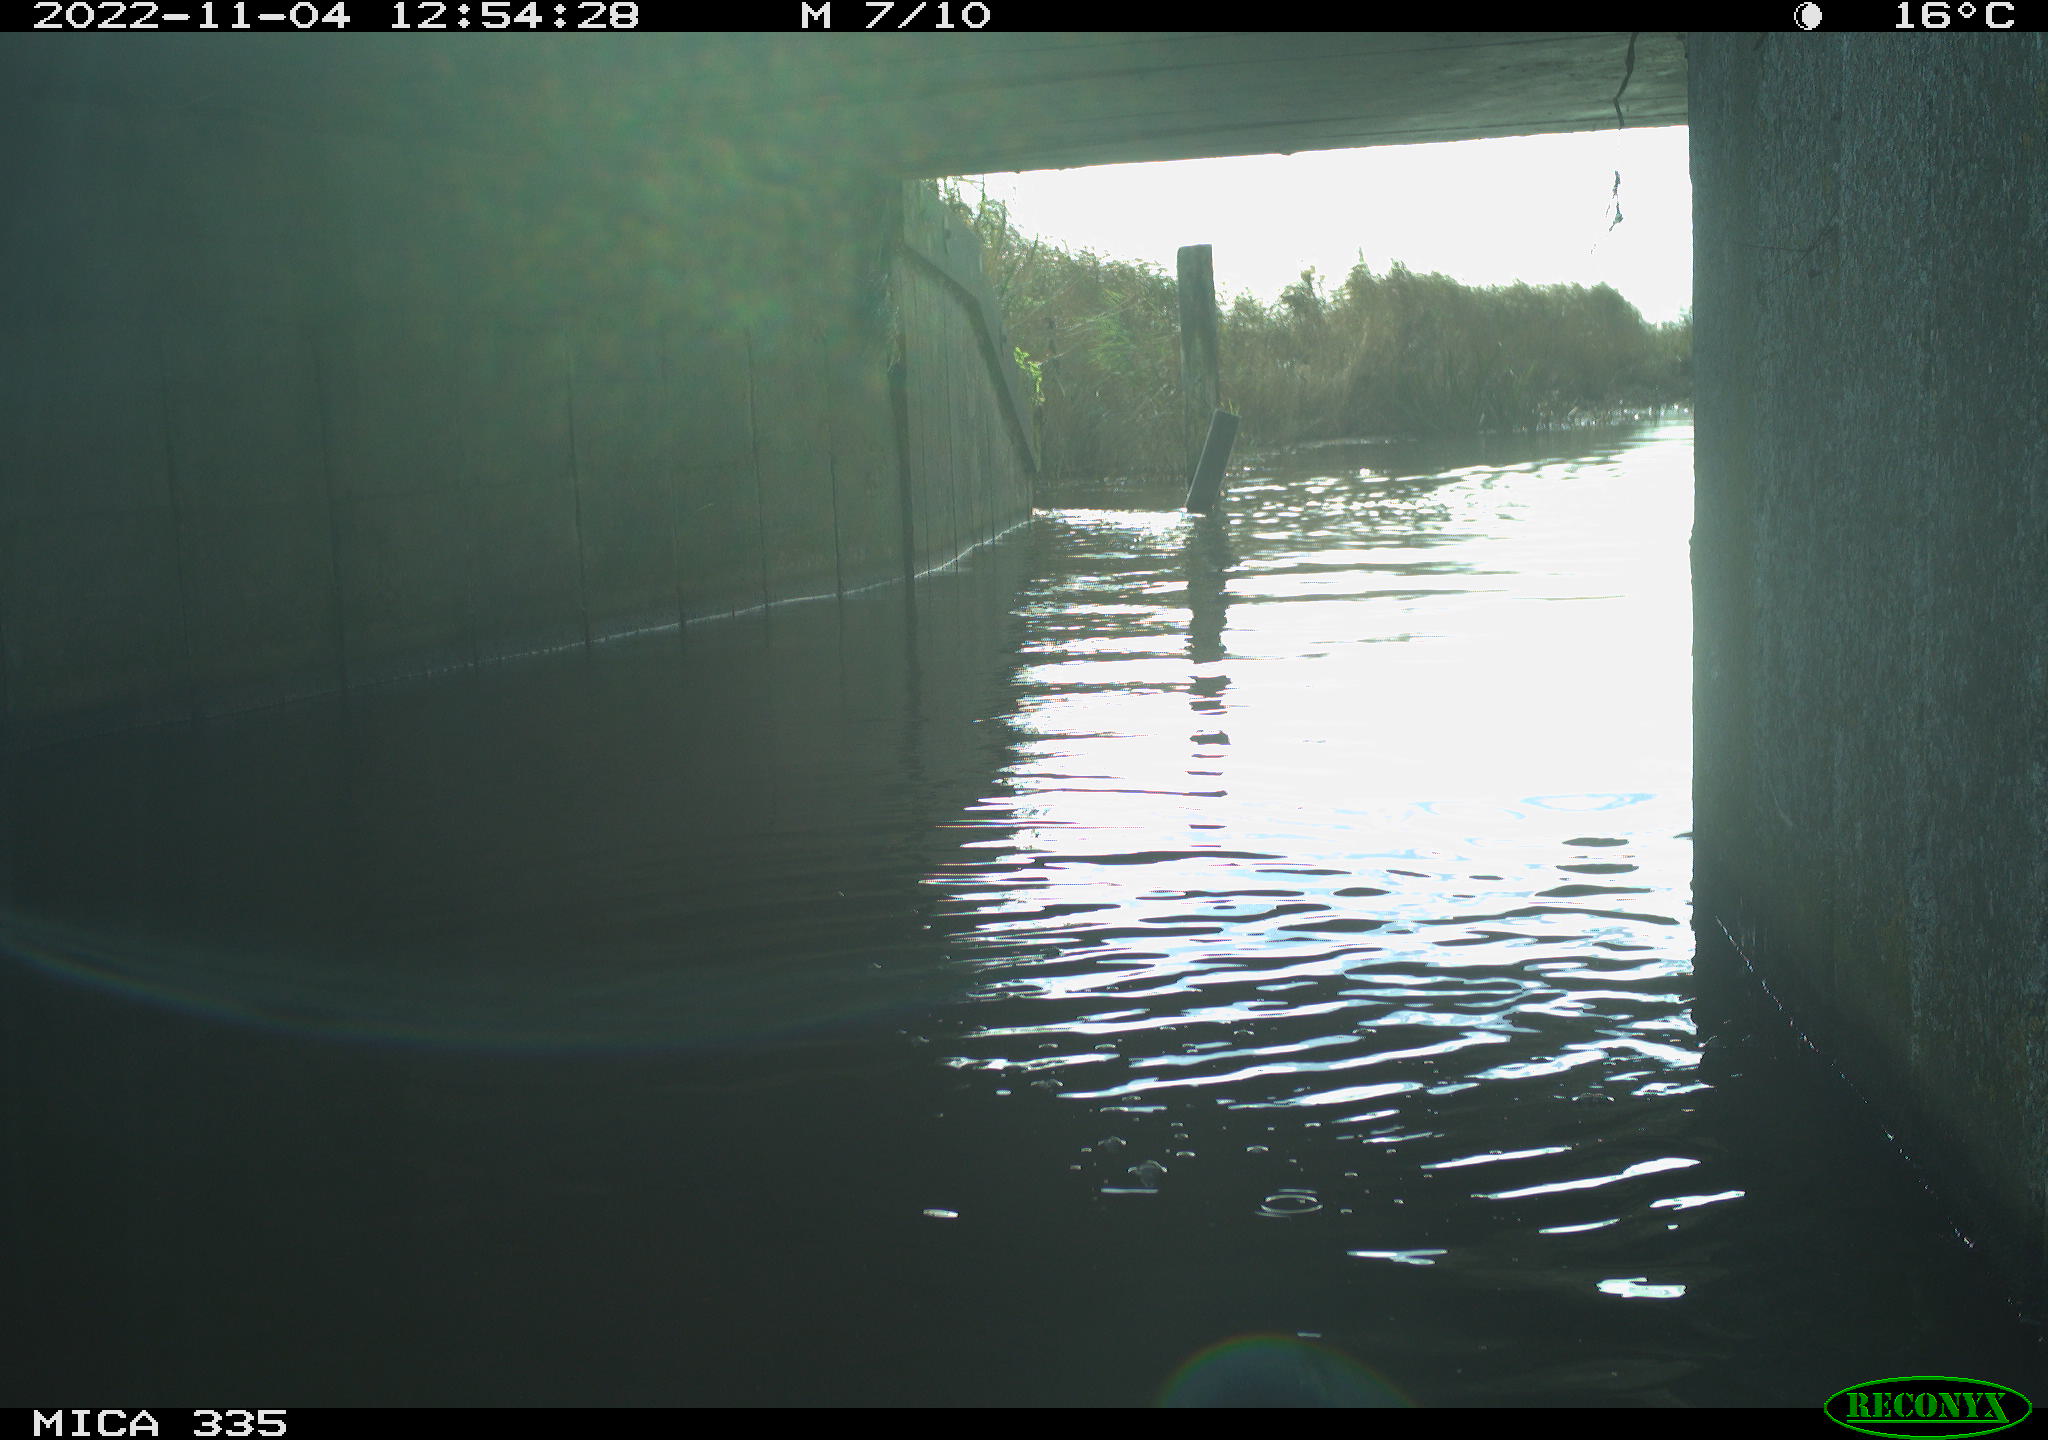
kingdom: Animalia
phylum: Chordata
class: Aves
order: Gruiformes
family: Rallidae
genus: Fulica
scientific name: Fulica atra
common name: Eurasian coot
